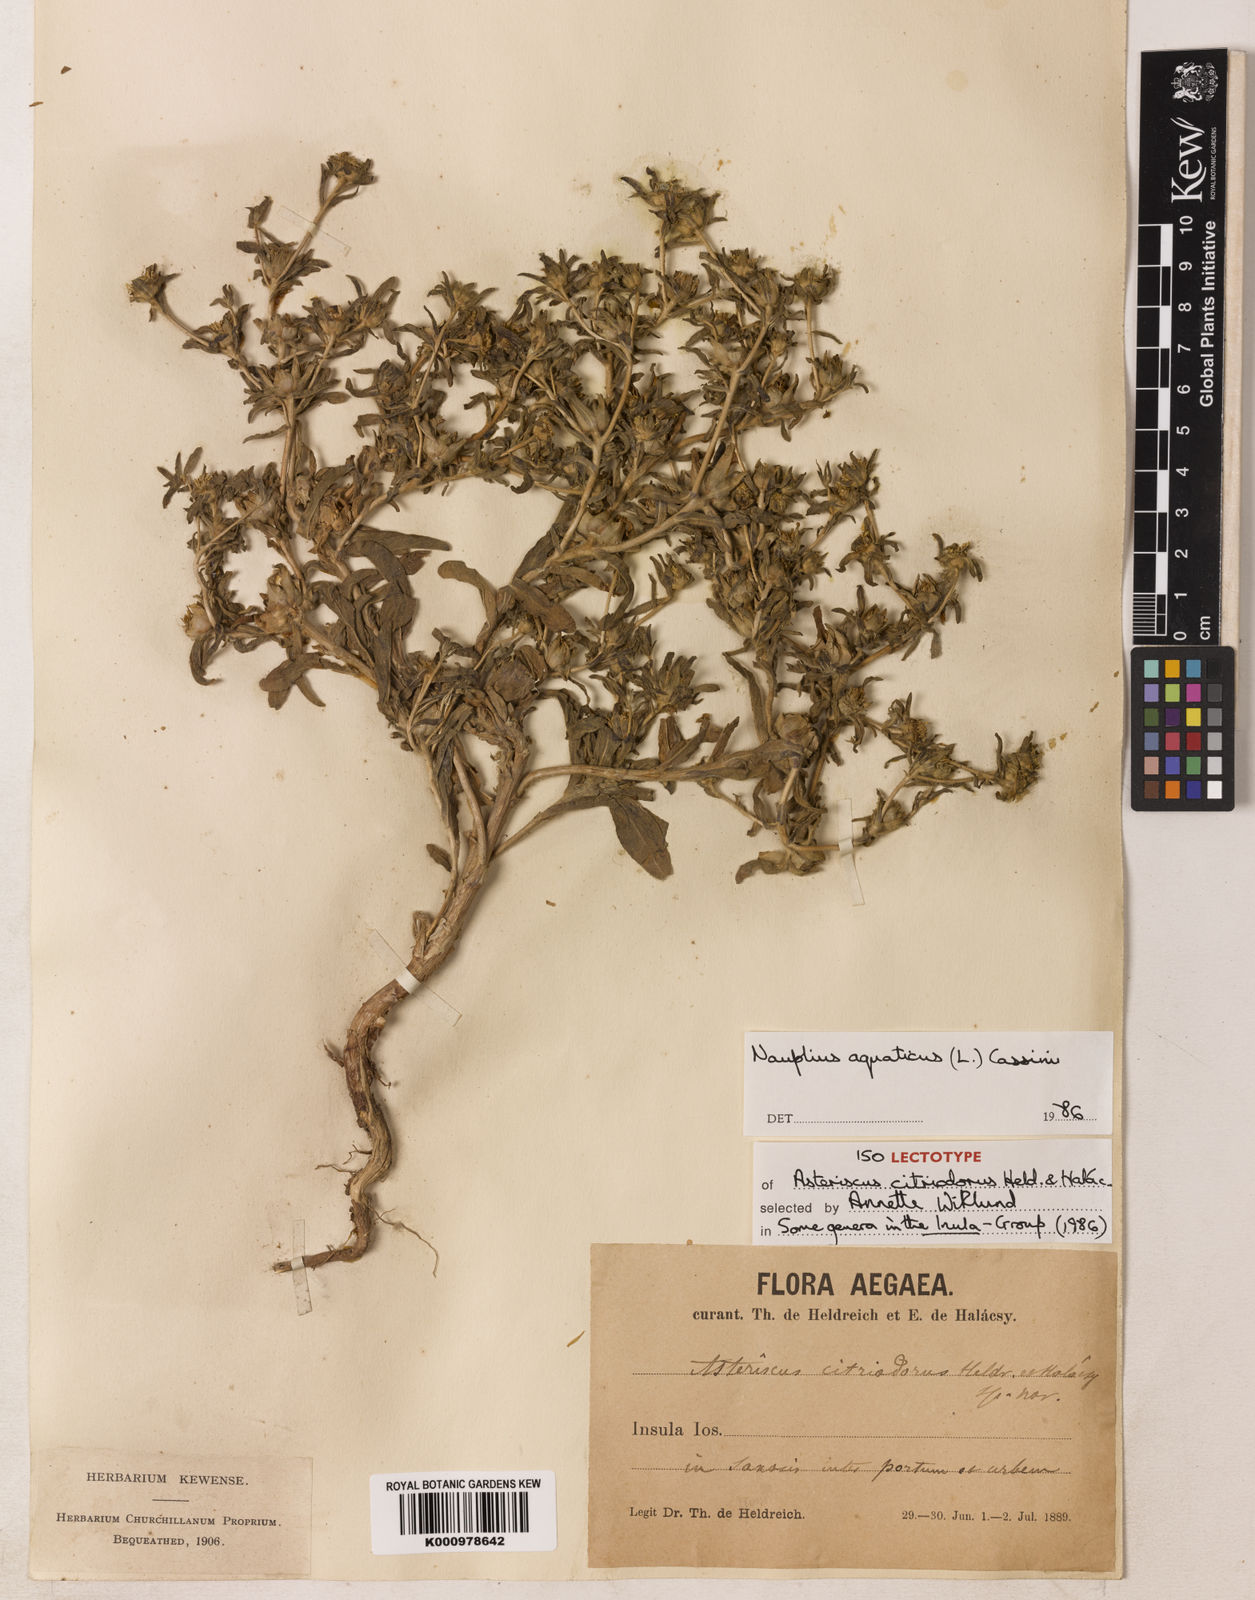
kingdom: Plantae
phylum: Tracheophyta
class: Magnoliopsida
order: Asterales
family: Asteraceae
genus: Asteriscus
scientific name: Asteriscus aquaticus
